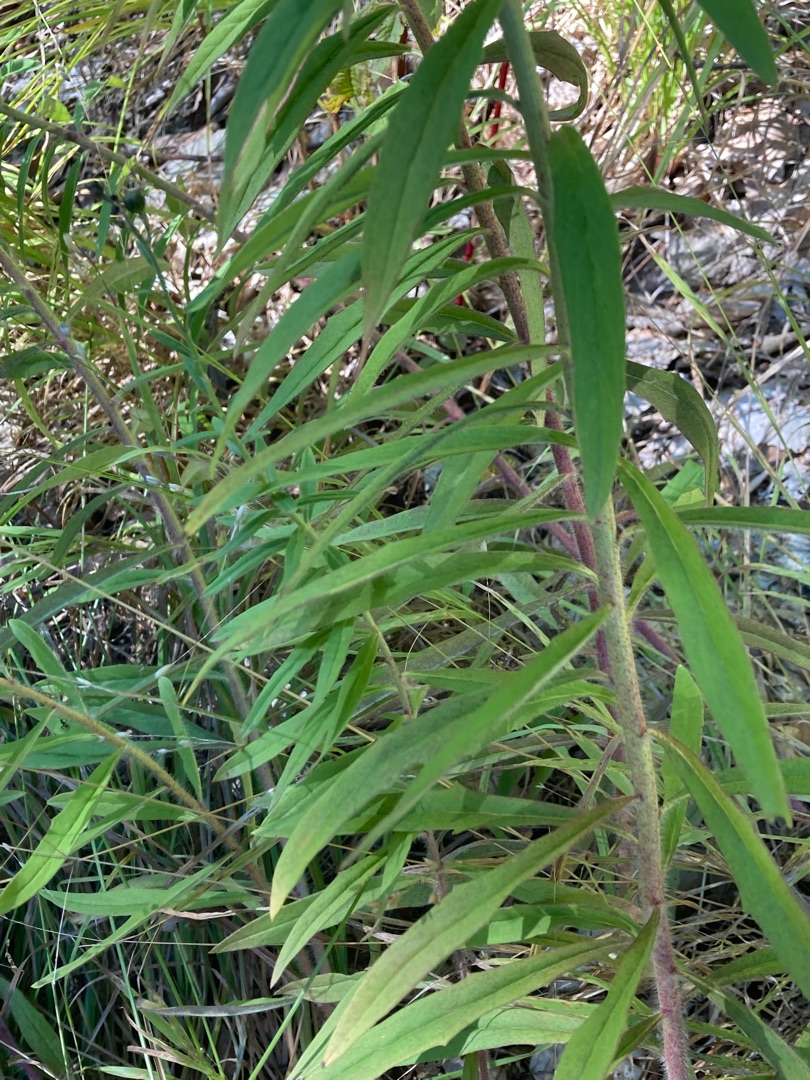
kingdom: Plantae
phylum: Tracheophyta
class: Magnoliopsida
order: Asterales
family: Asteraceae
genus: Hieracium
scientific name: Hieracium umbellatum
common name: Smalbladet høgeurt
